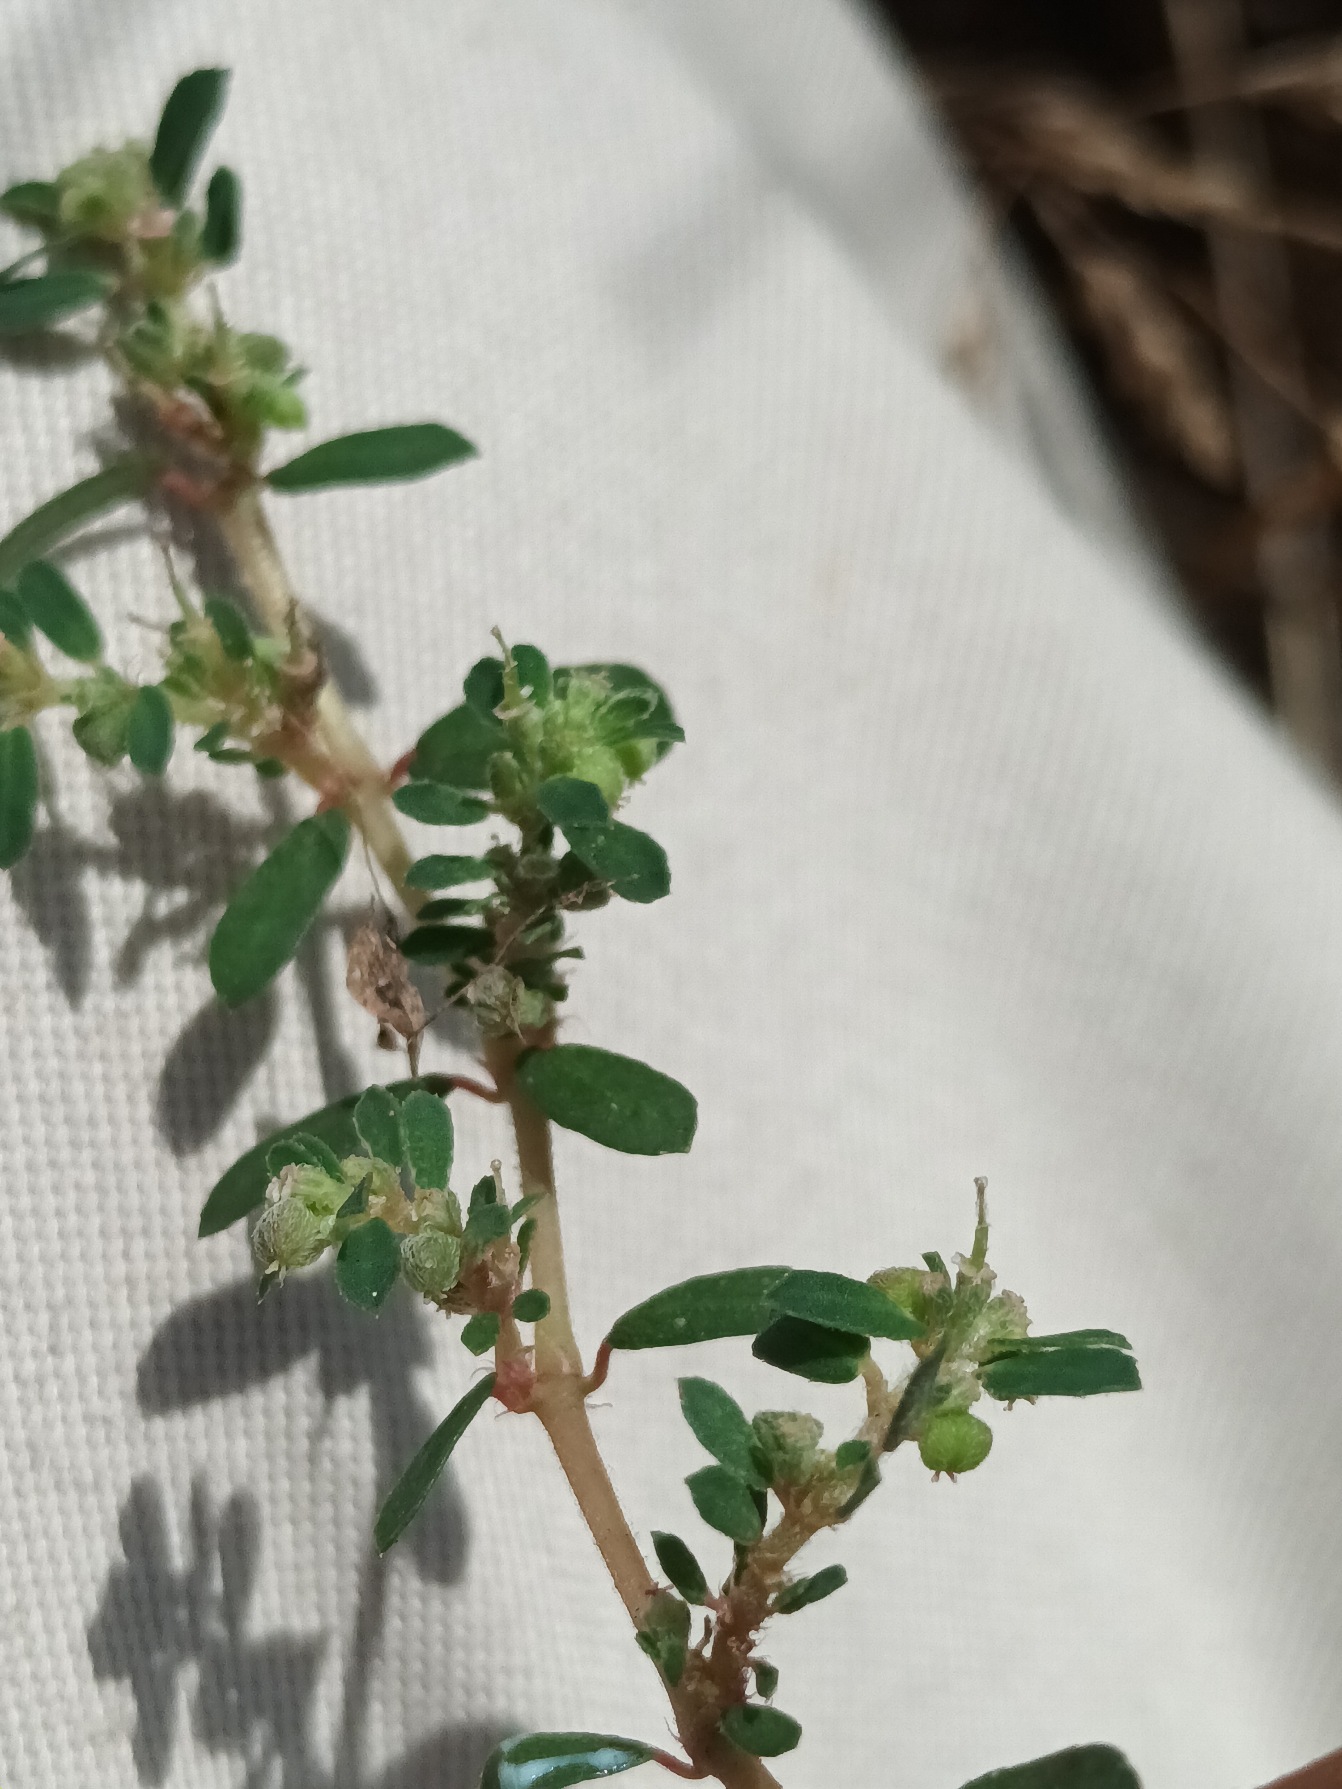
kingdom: Plantae
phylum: Tracheophyta
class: Magnoliopsida
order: Malpighiales
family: Euphorbiaceae
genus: Euphorbia
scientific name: Euphorbia maculata
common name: Plet-vortemælk
